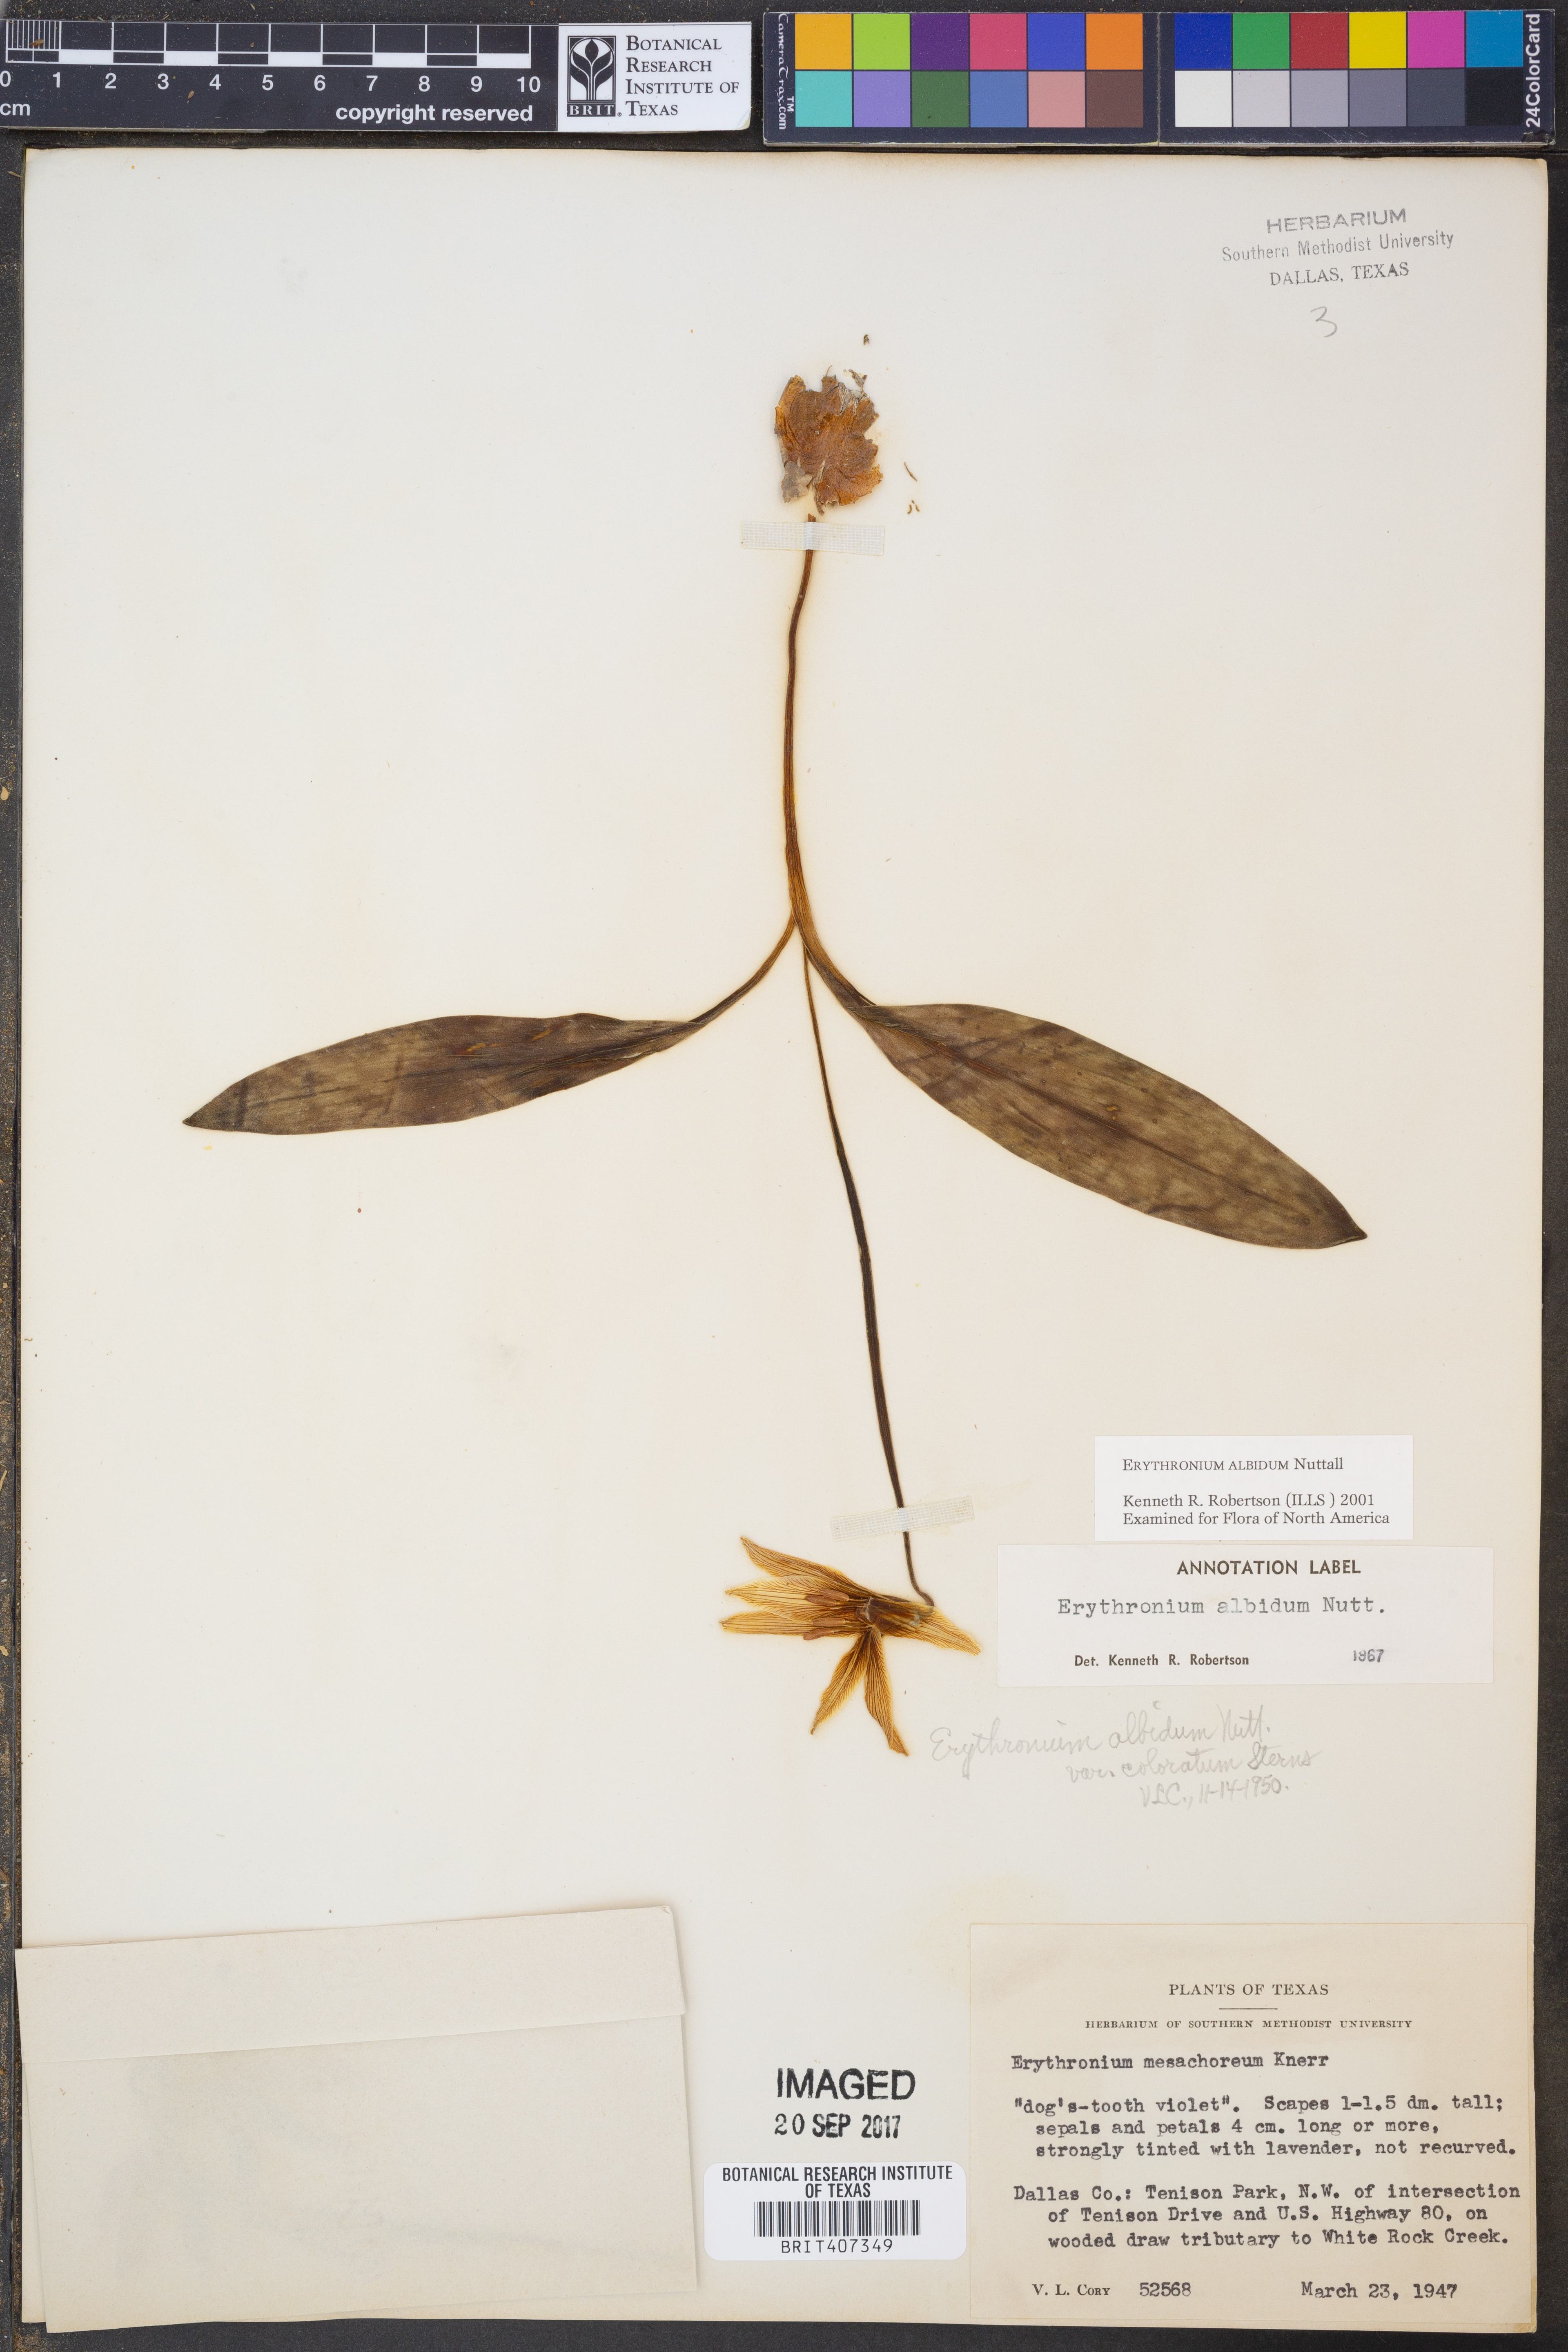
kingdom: Plantae
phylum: Tracheophyta
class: Liliopsida
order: Liliales
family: Liliaceae
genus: Erythronium
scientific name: Erythronium albidum
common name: White trout-lily
